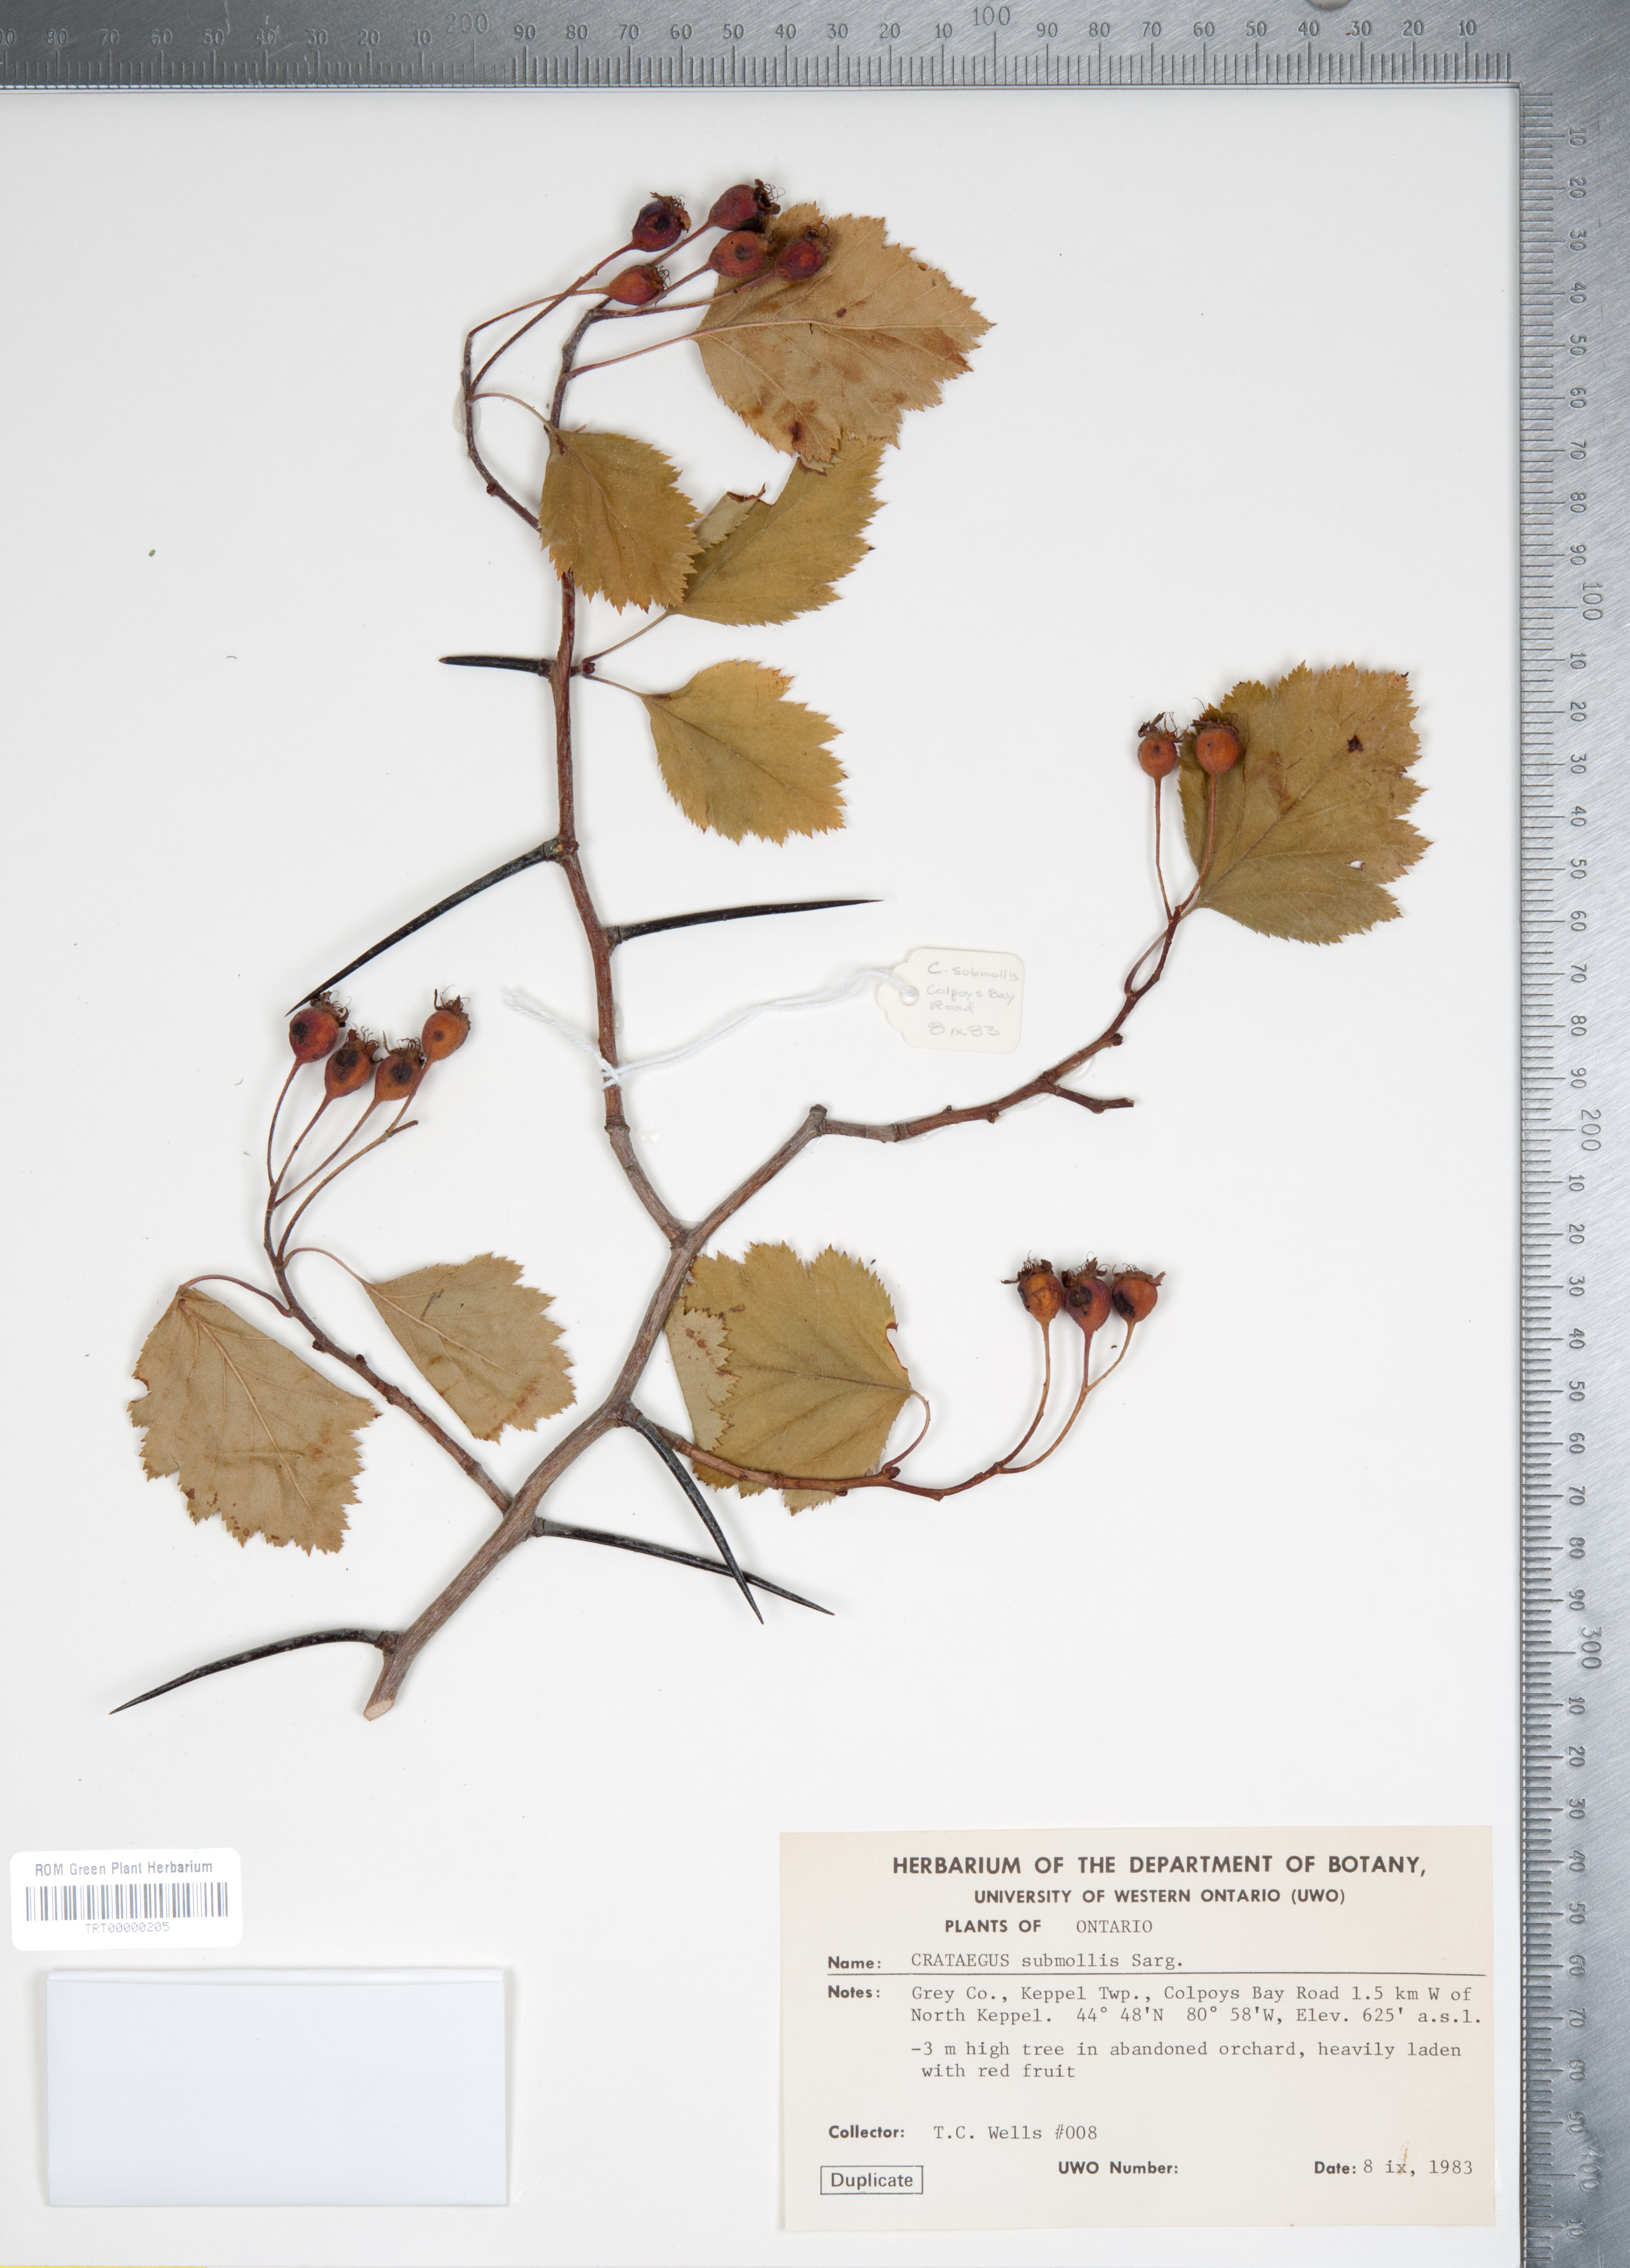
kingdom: Plantae
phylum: Tracheophyta
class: Magnoliopsida
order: Rosales
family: Rosaceae
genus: Crataegus
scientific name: Crataegus submollis
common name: Hairy cockspurthorn
